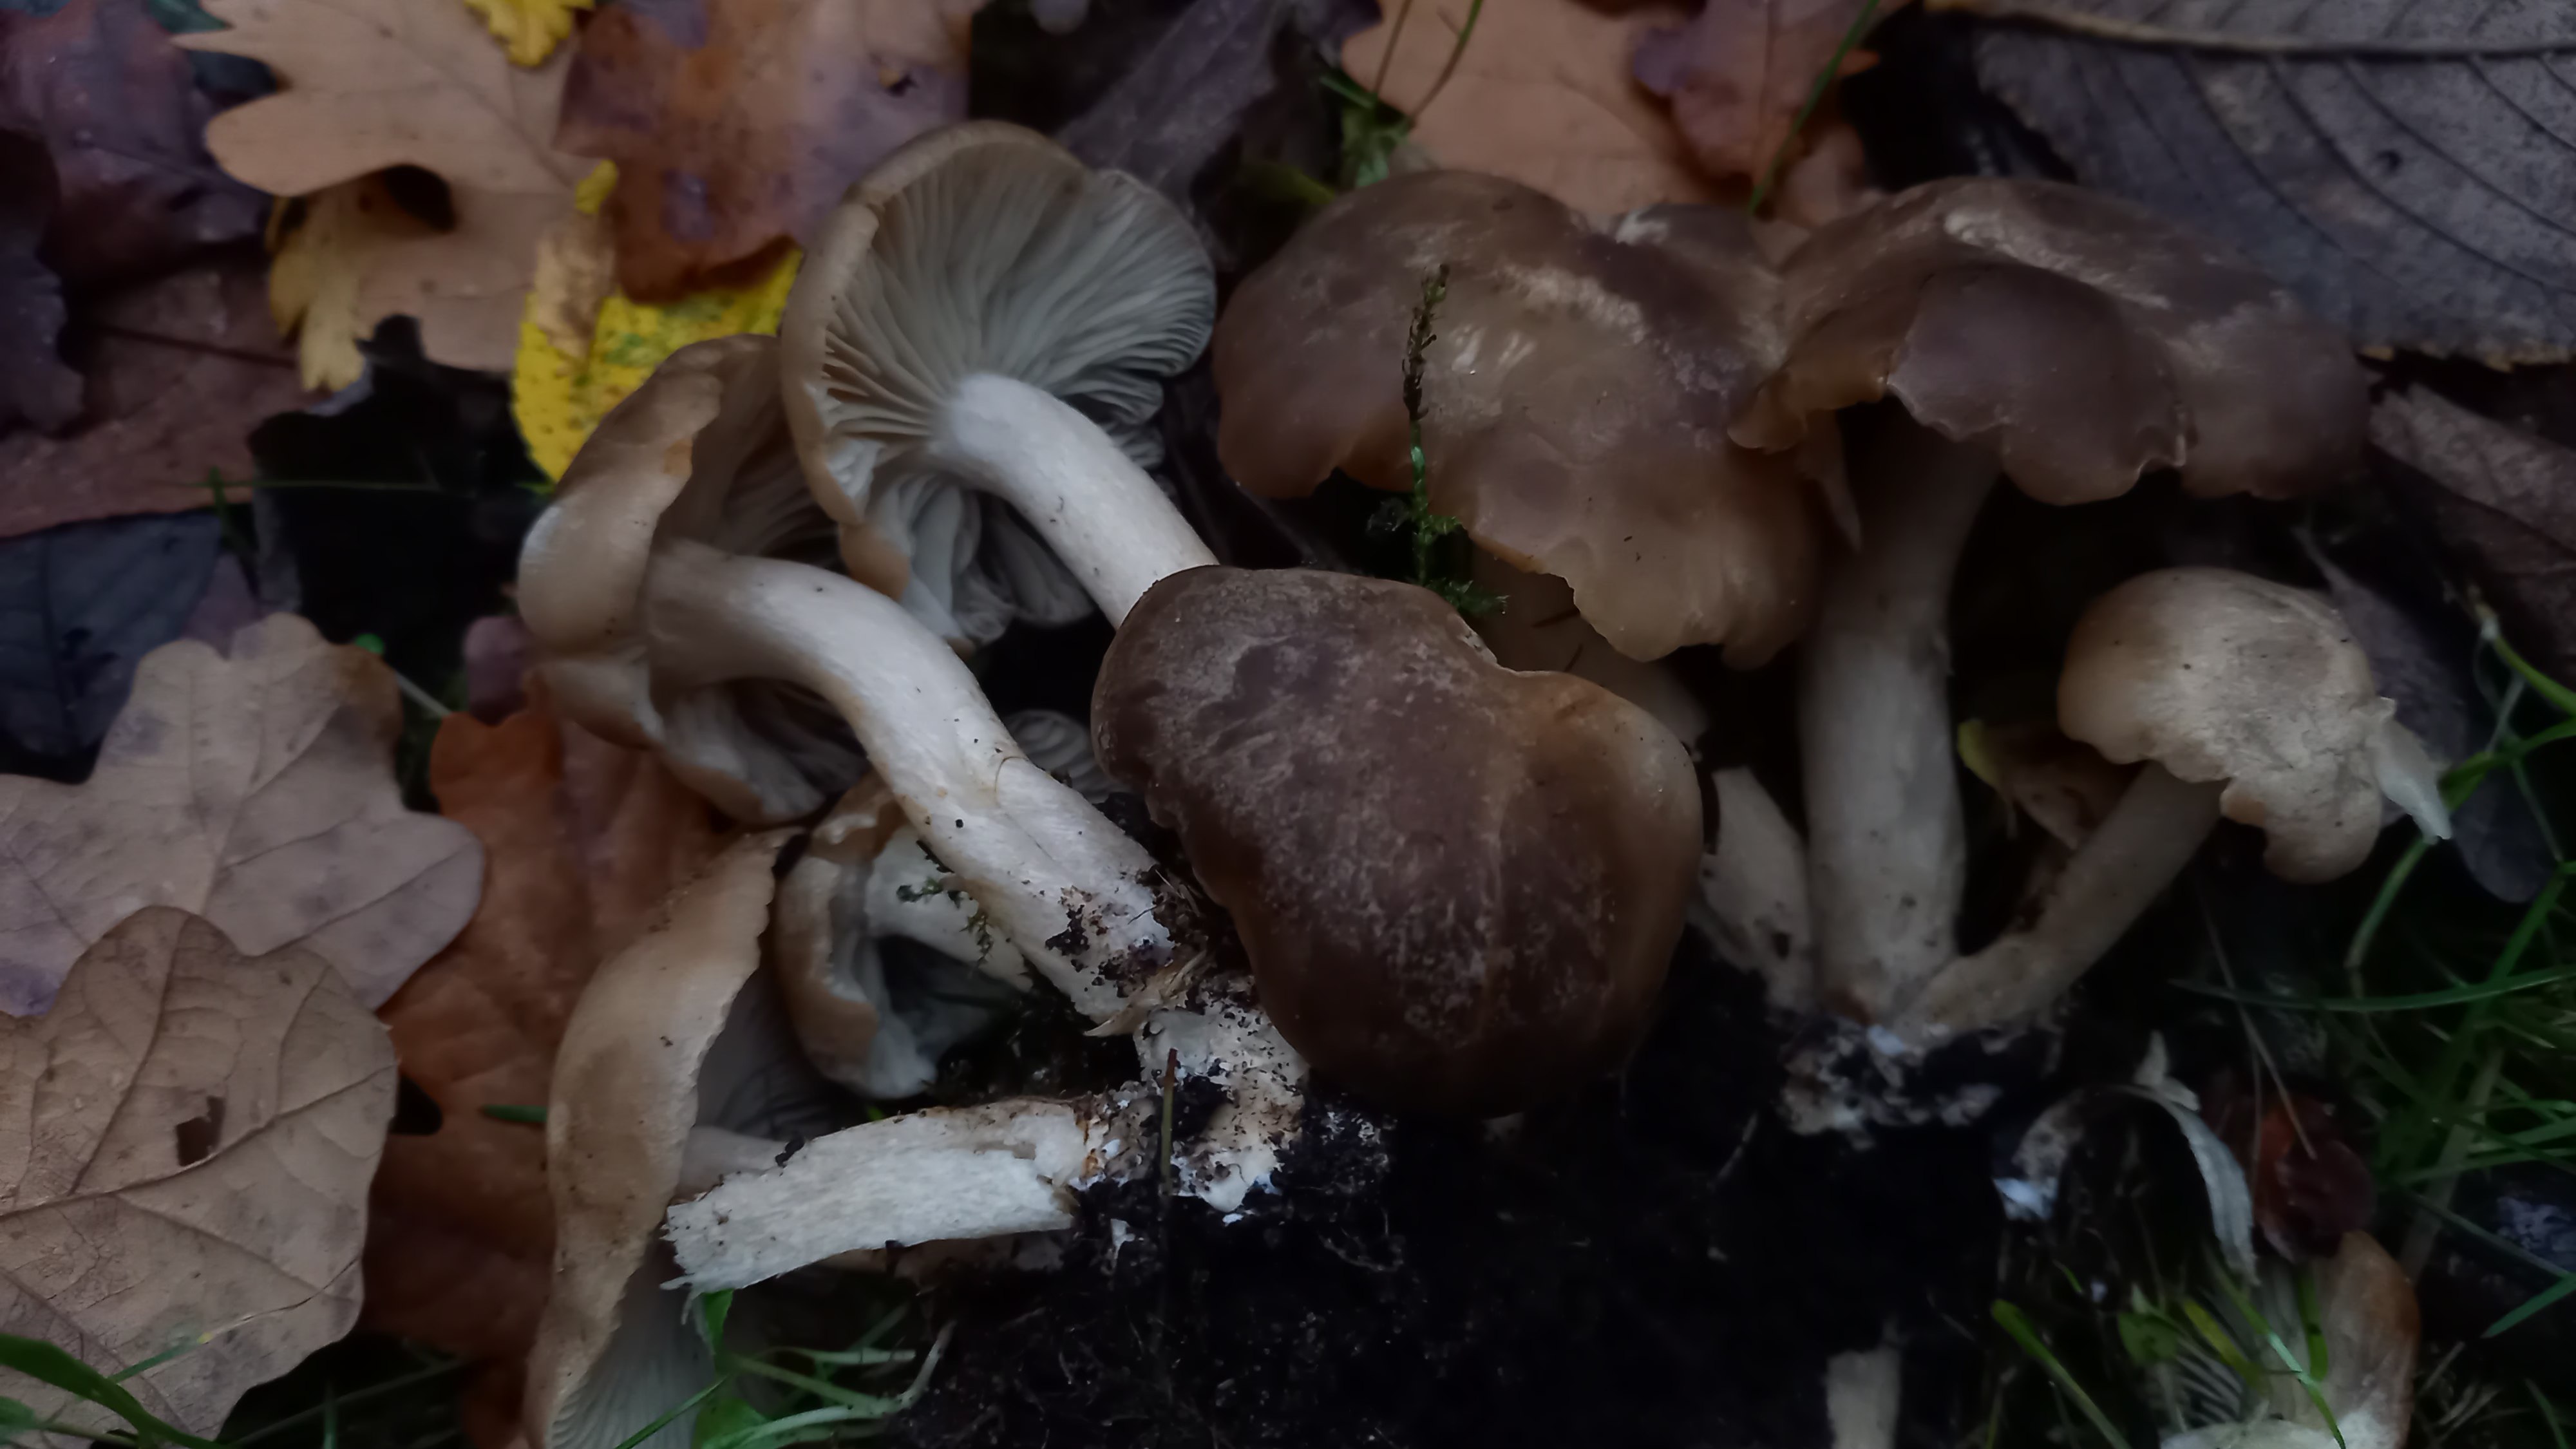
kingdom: Fungi
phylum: Basidiomycota
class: Agaricomycetes
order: Agaricales
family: Lyophyllaceae
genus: Lyophyllum
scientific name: Lyophyllum decastes
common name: røggrå gråblad
